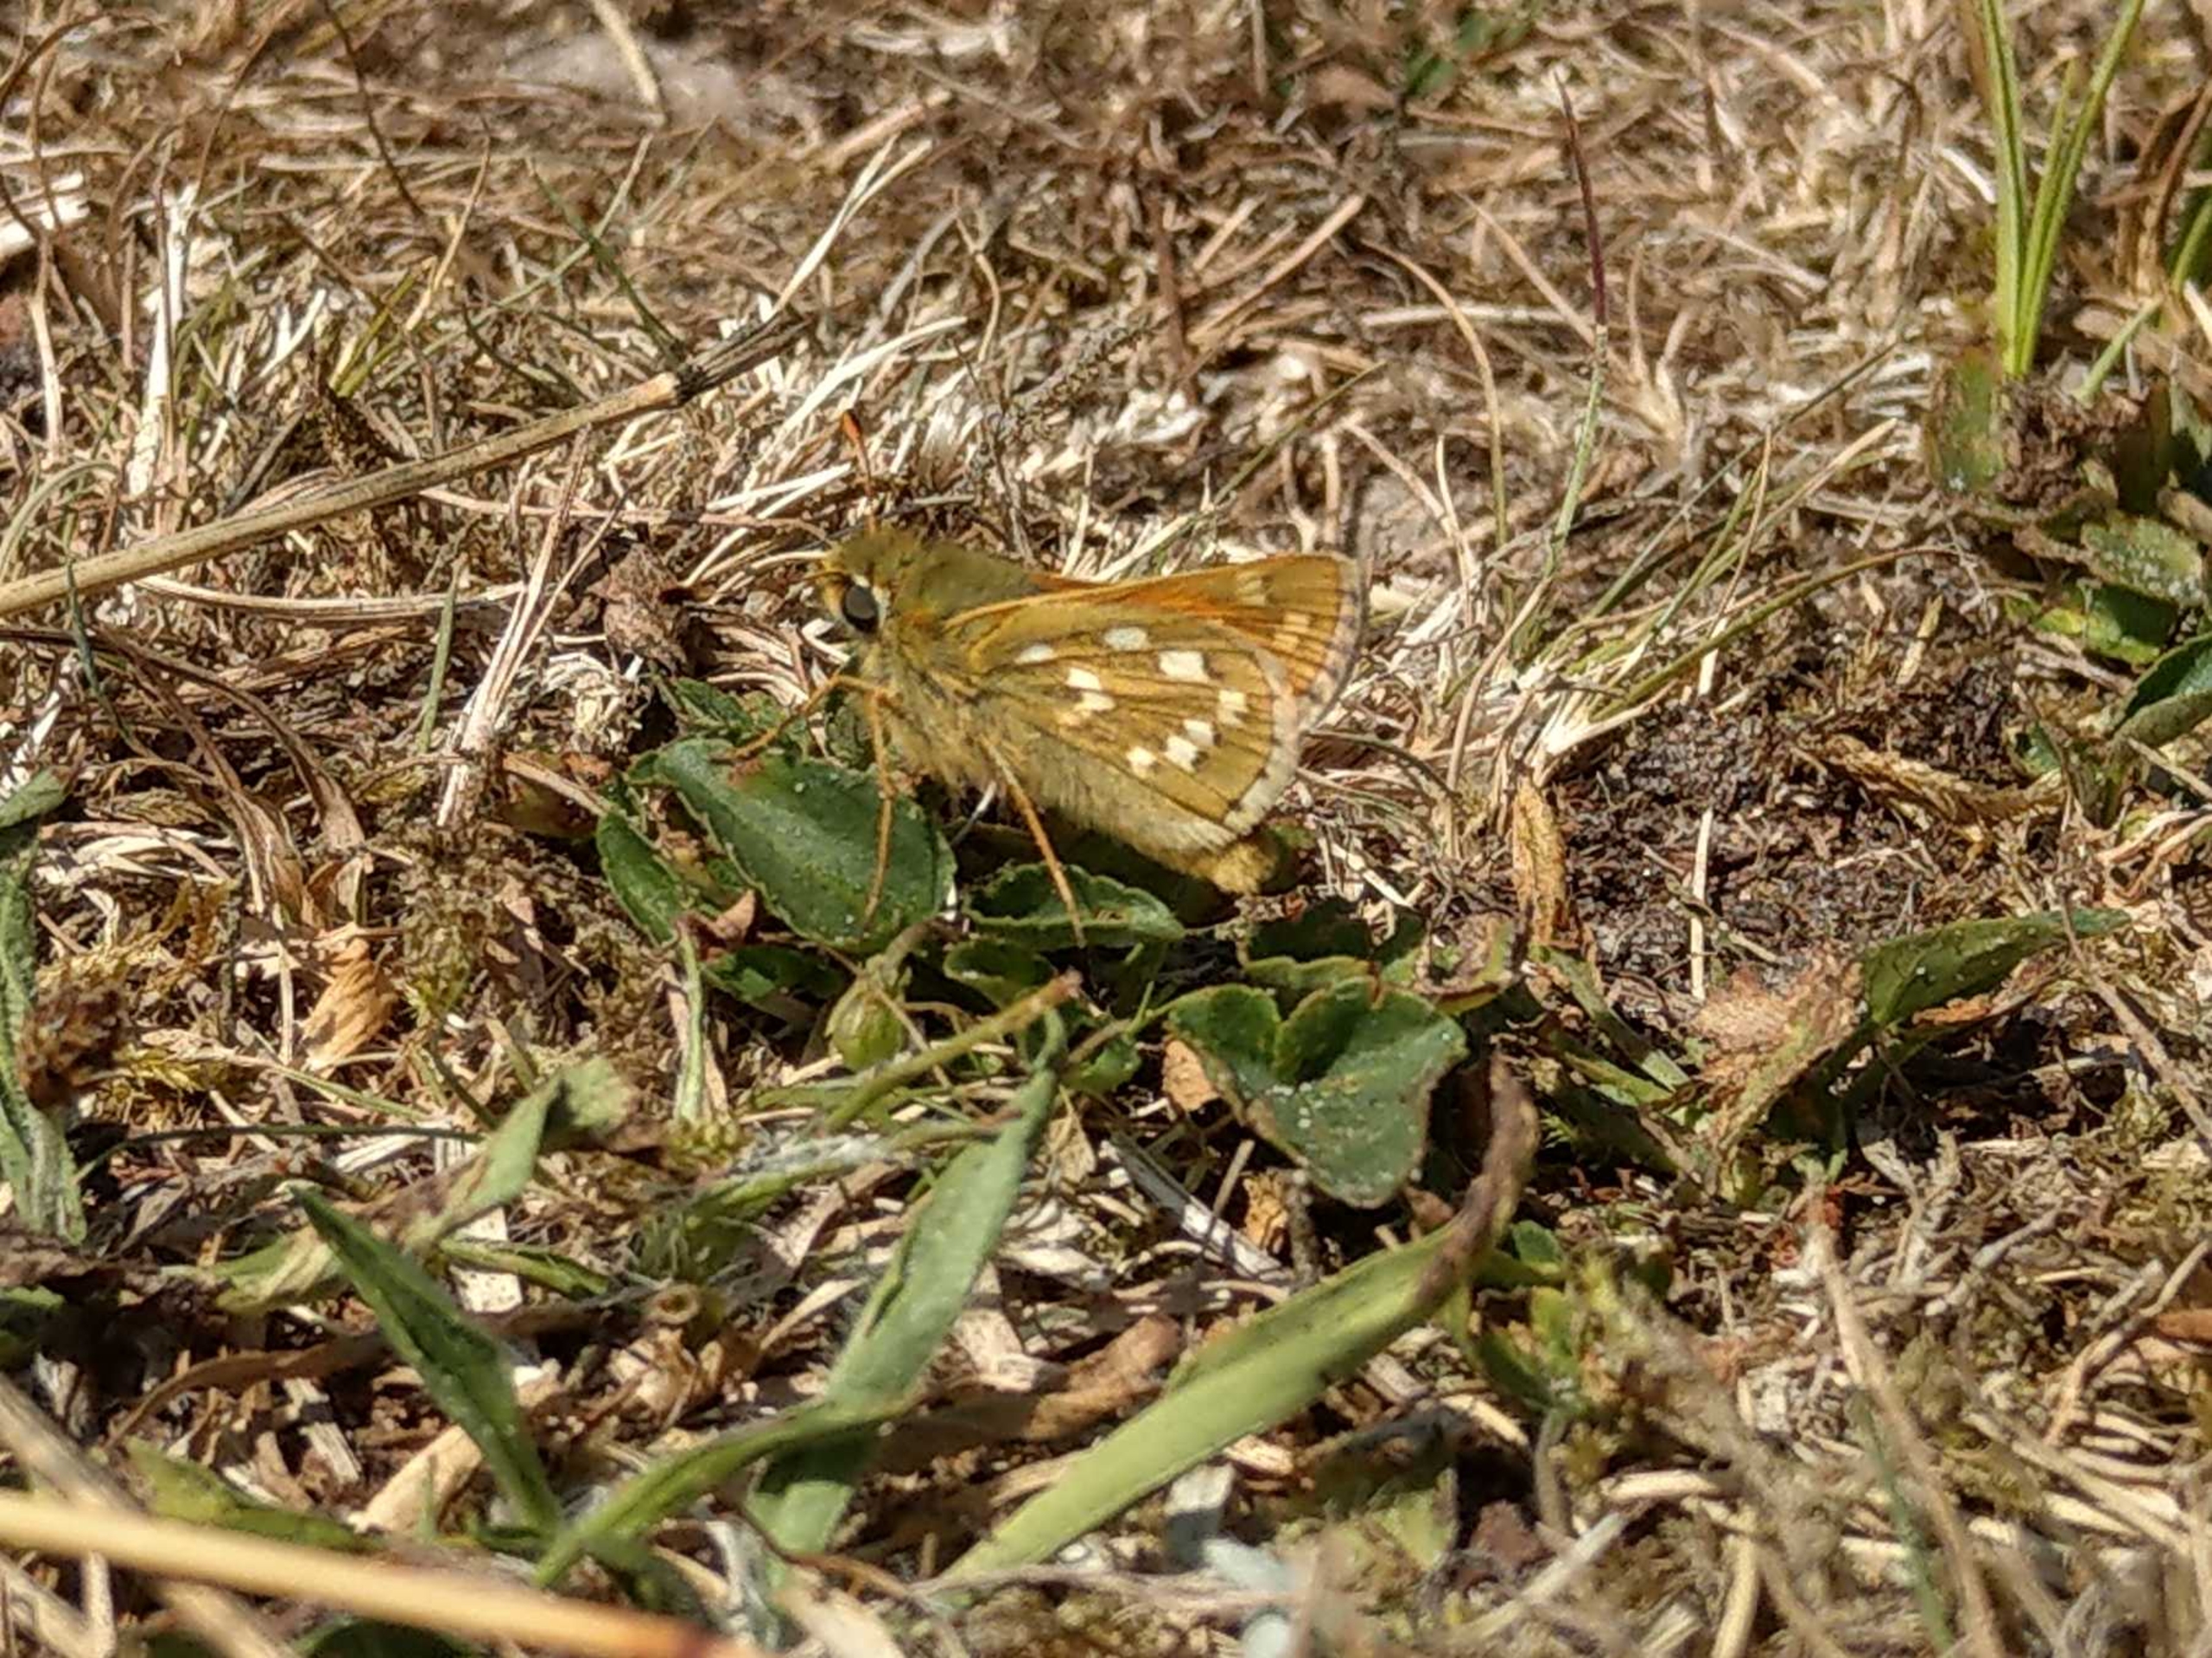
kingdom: Animalia
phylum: Arthropoda
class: Insecta
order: Lepidoptera
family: Hesperiidae
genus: Hesperia
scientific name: Hesperia comma
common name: Kommabredpande
